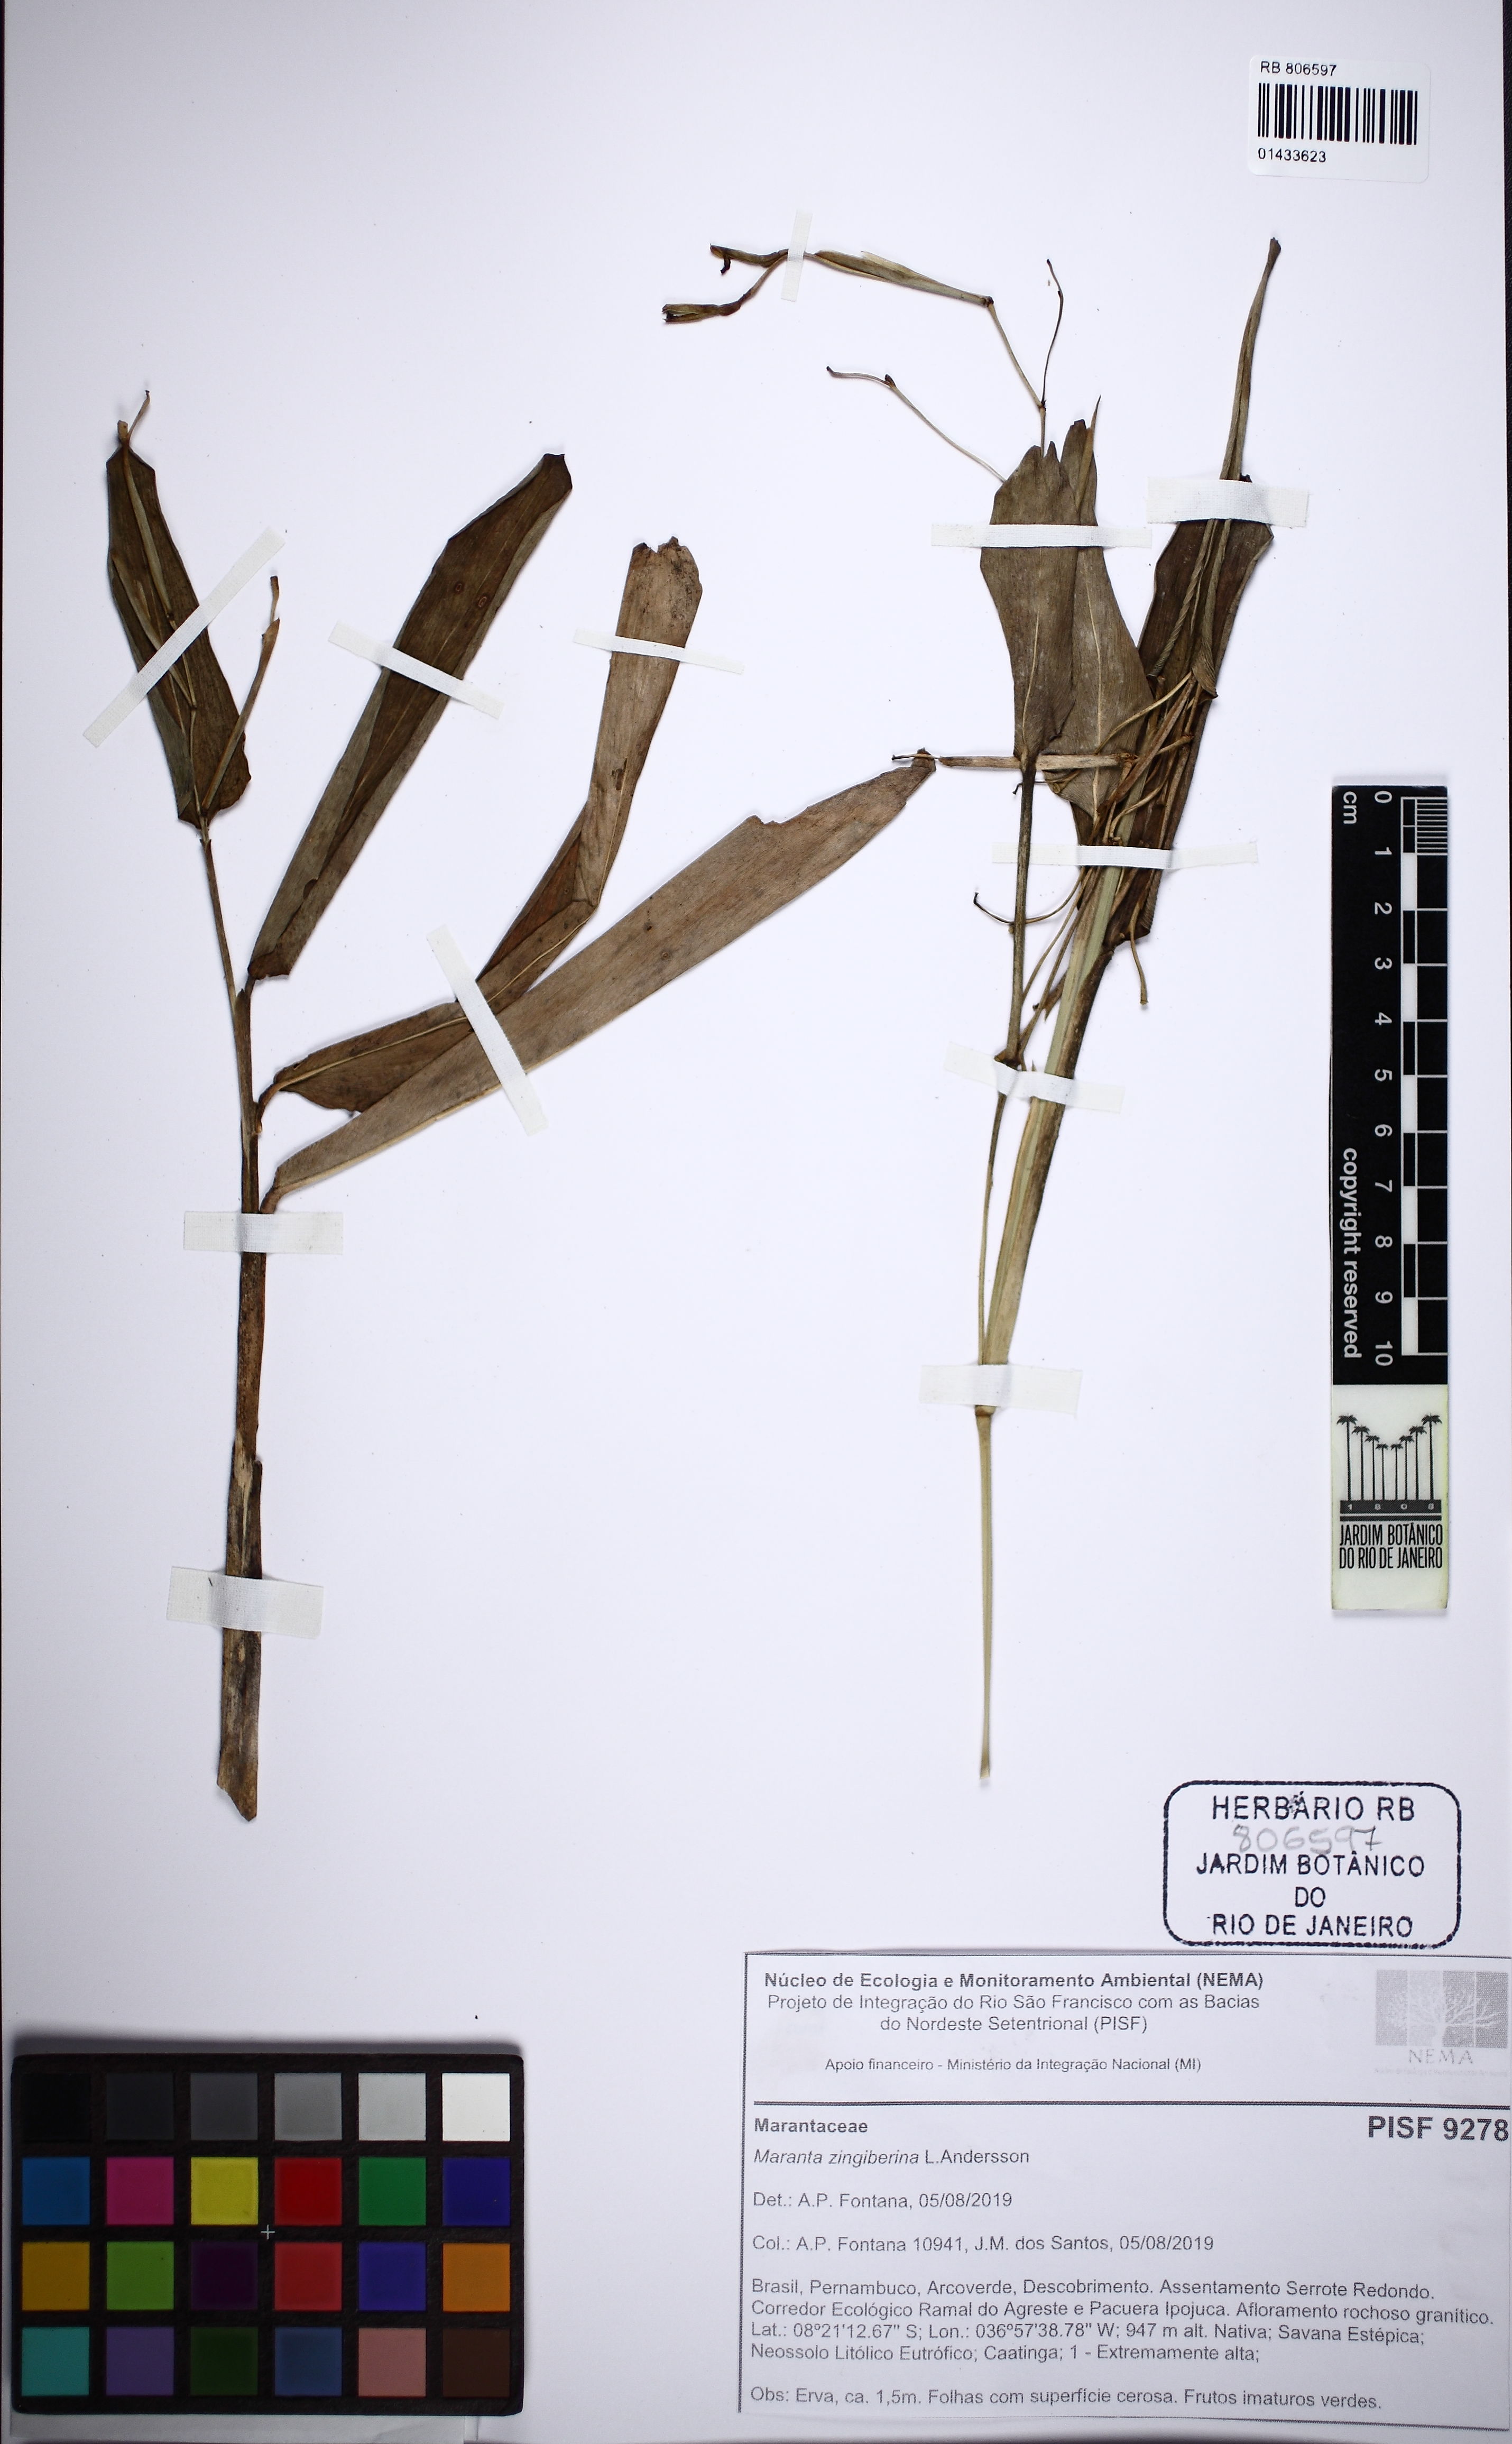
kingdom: Plantae
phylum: Tracheophyta
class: Liliopsida
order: Zingiberales
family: Marantaceae
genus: Maranta
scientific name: Maranta zingiberina
